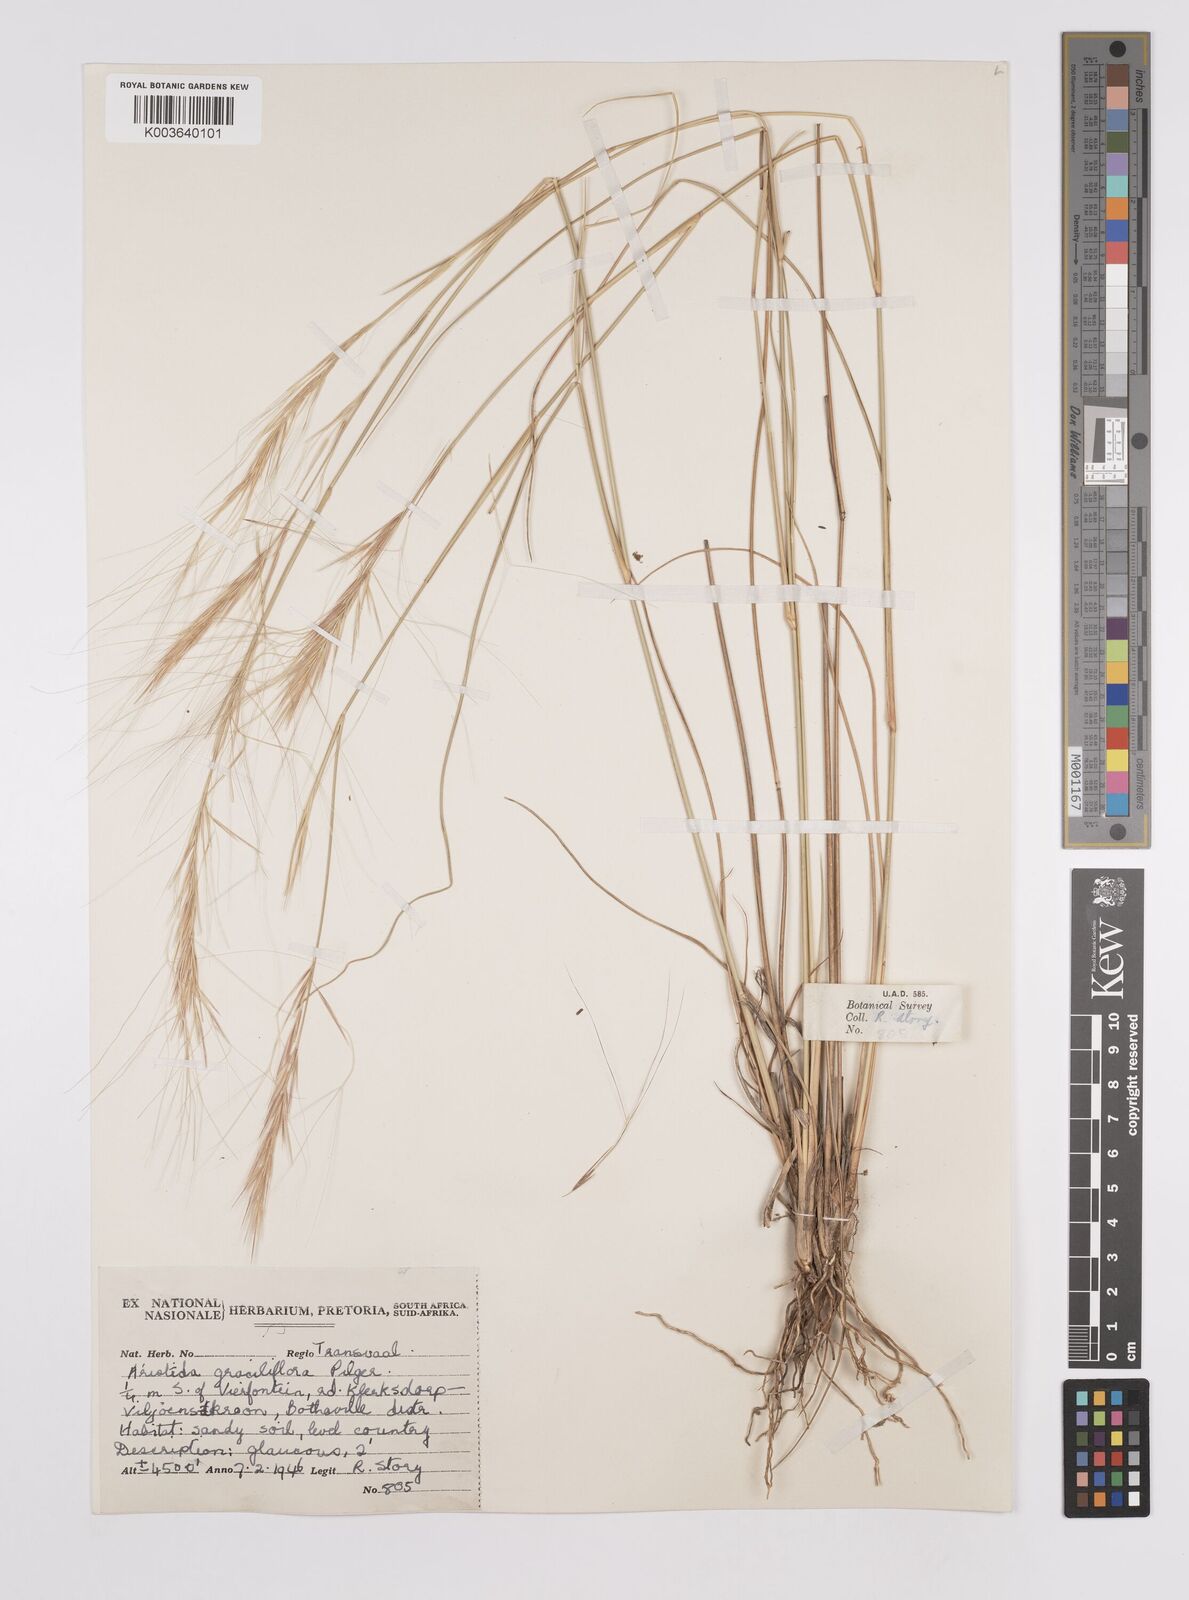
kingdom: Plantae
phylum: Tracheophyta
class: Liliopsida
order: Poales
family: Poaceae
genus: Aristida
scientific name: Aristida stipitata
